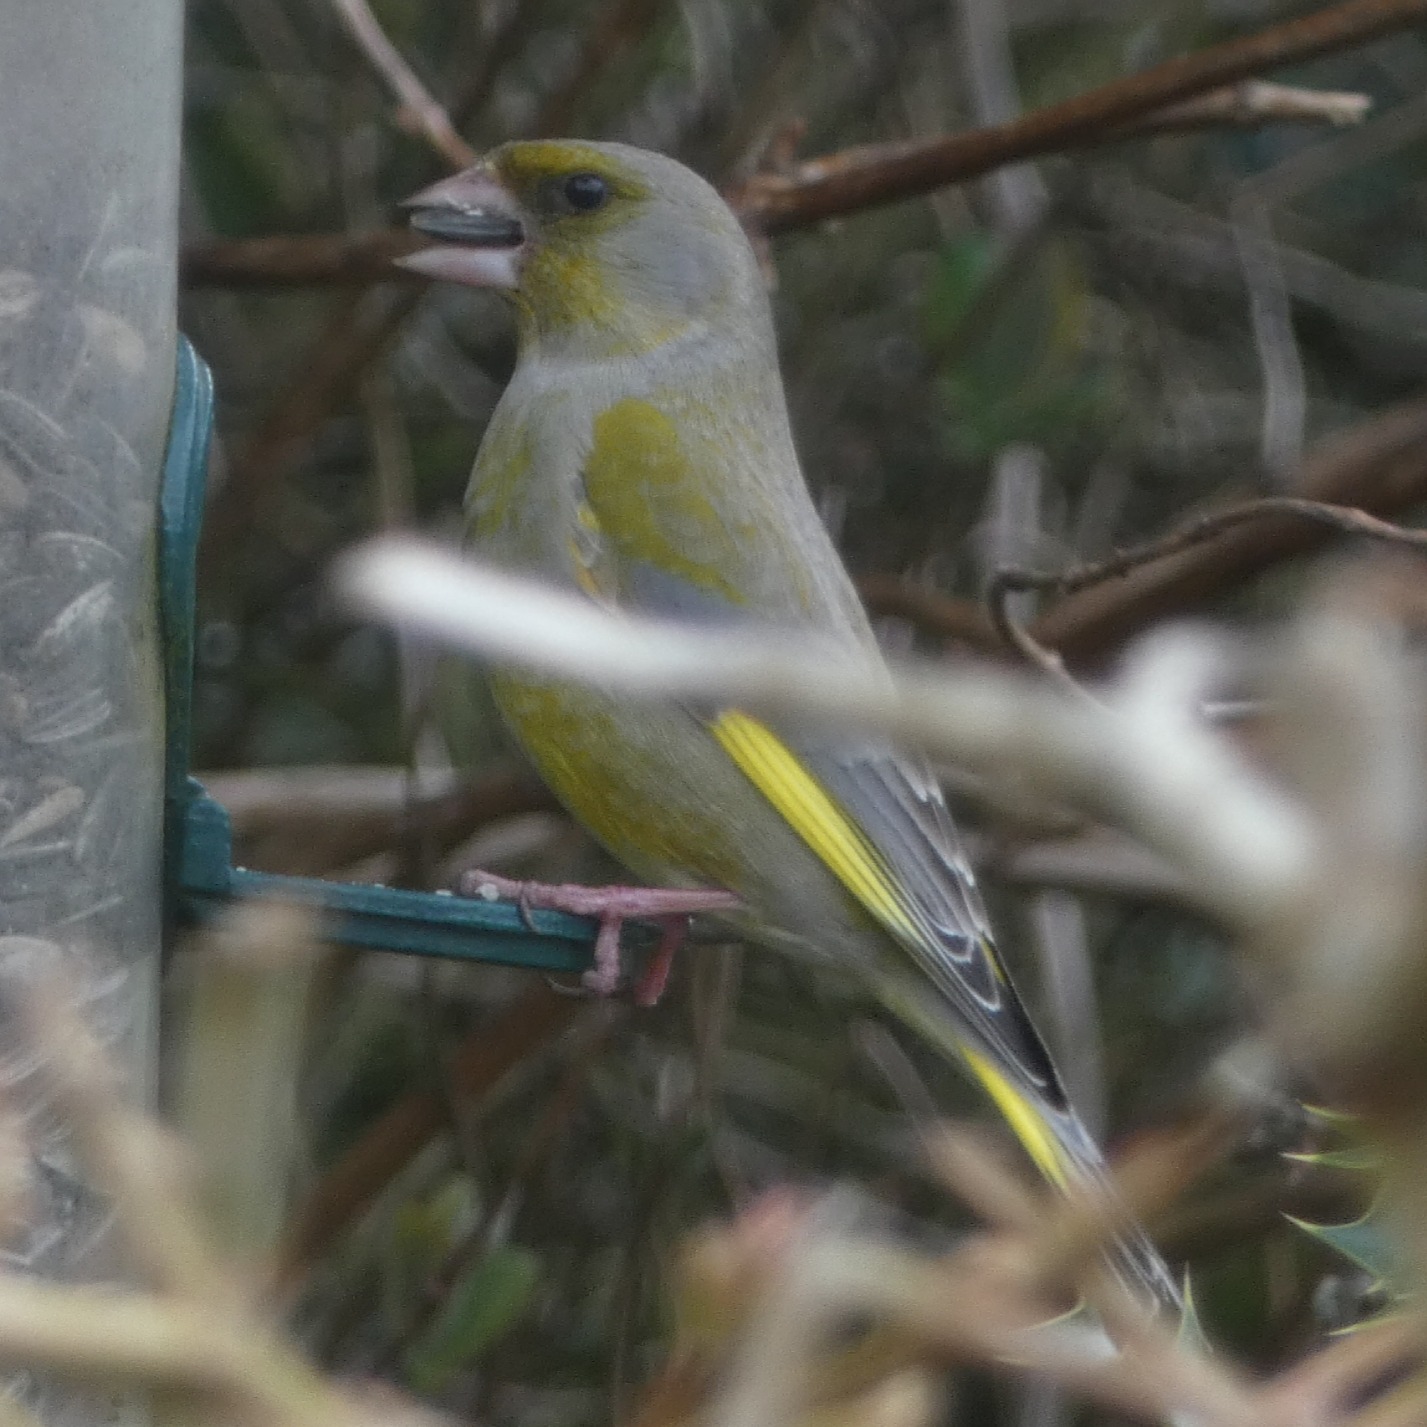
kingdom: Plantae
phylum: Tracheophyta
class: Liliopsida
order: Poales
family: Poaceae
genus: Chloris
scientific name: Chloris chloris
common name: Grønirisk
